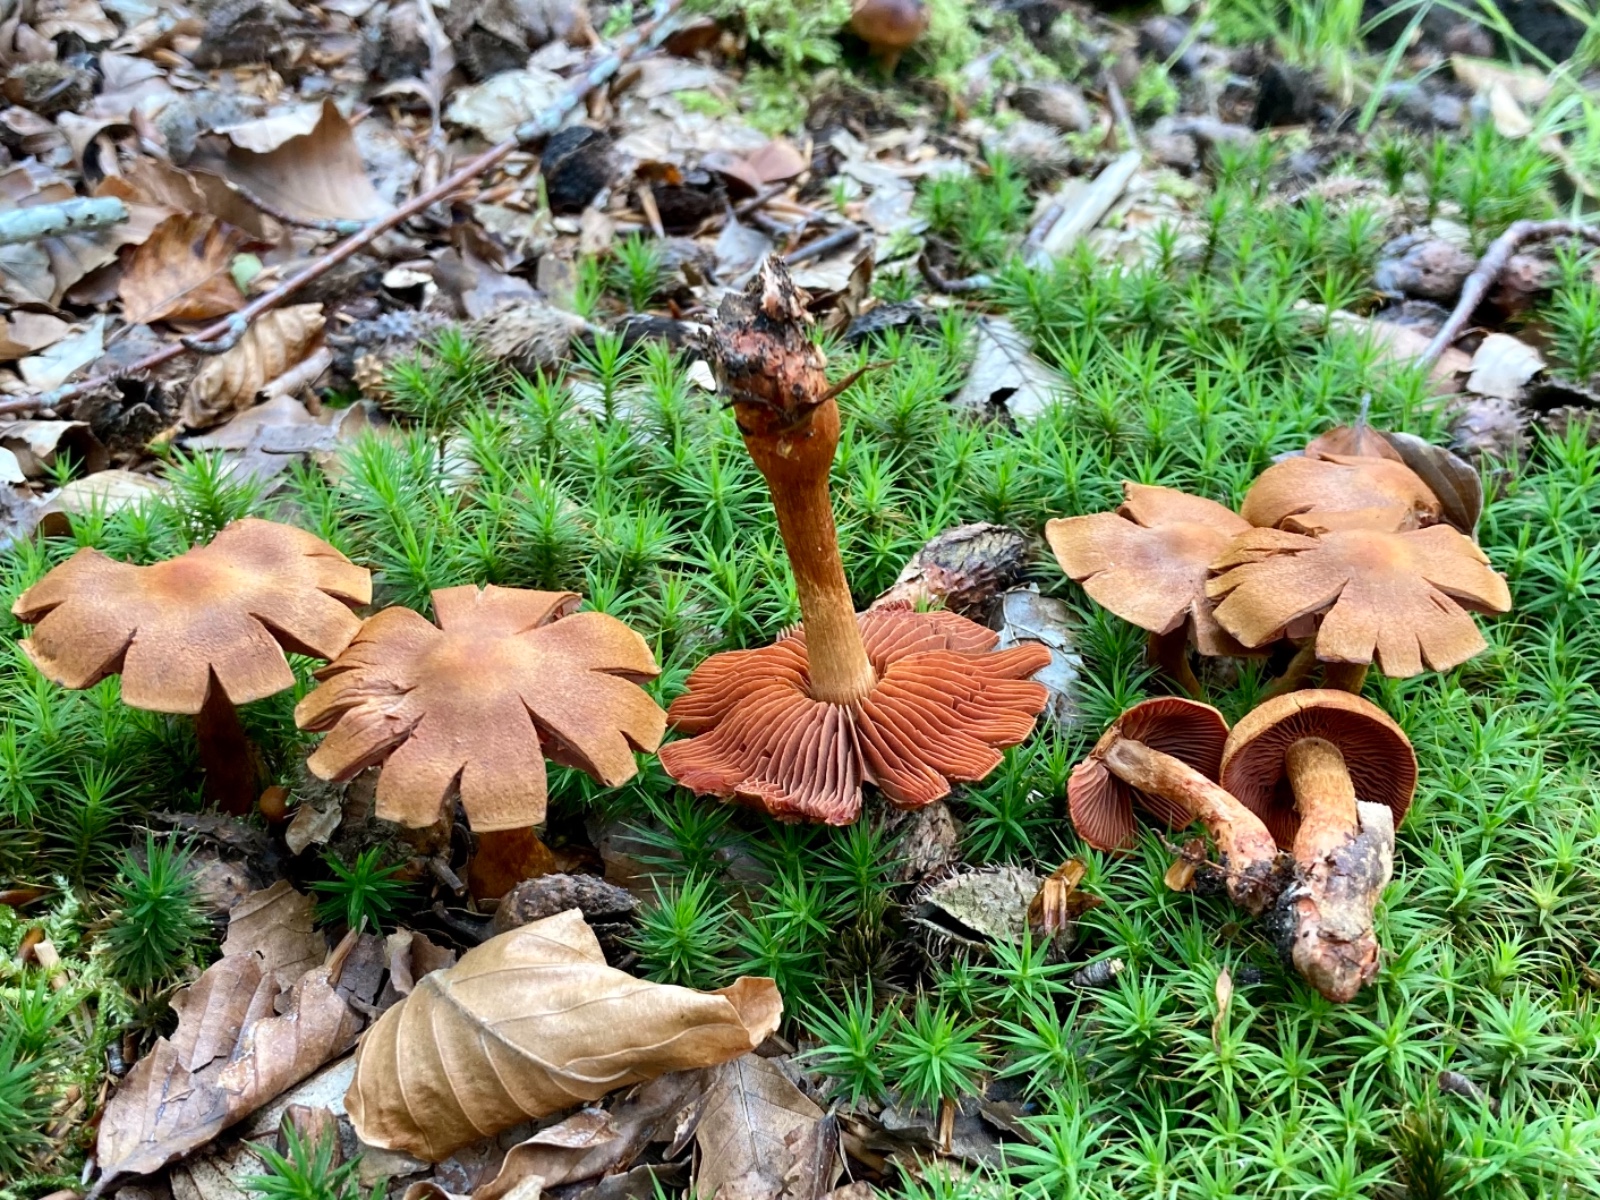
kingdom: Fungi
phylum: Basidiomycota
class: Agaricomycetes
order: Agaricales
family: Cortinariaceae
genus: Cortinarius
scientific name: Cortinarius purpureus
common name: brunrød slørhat
